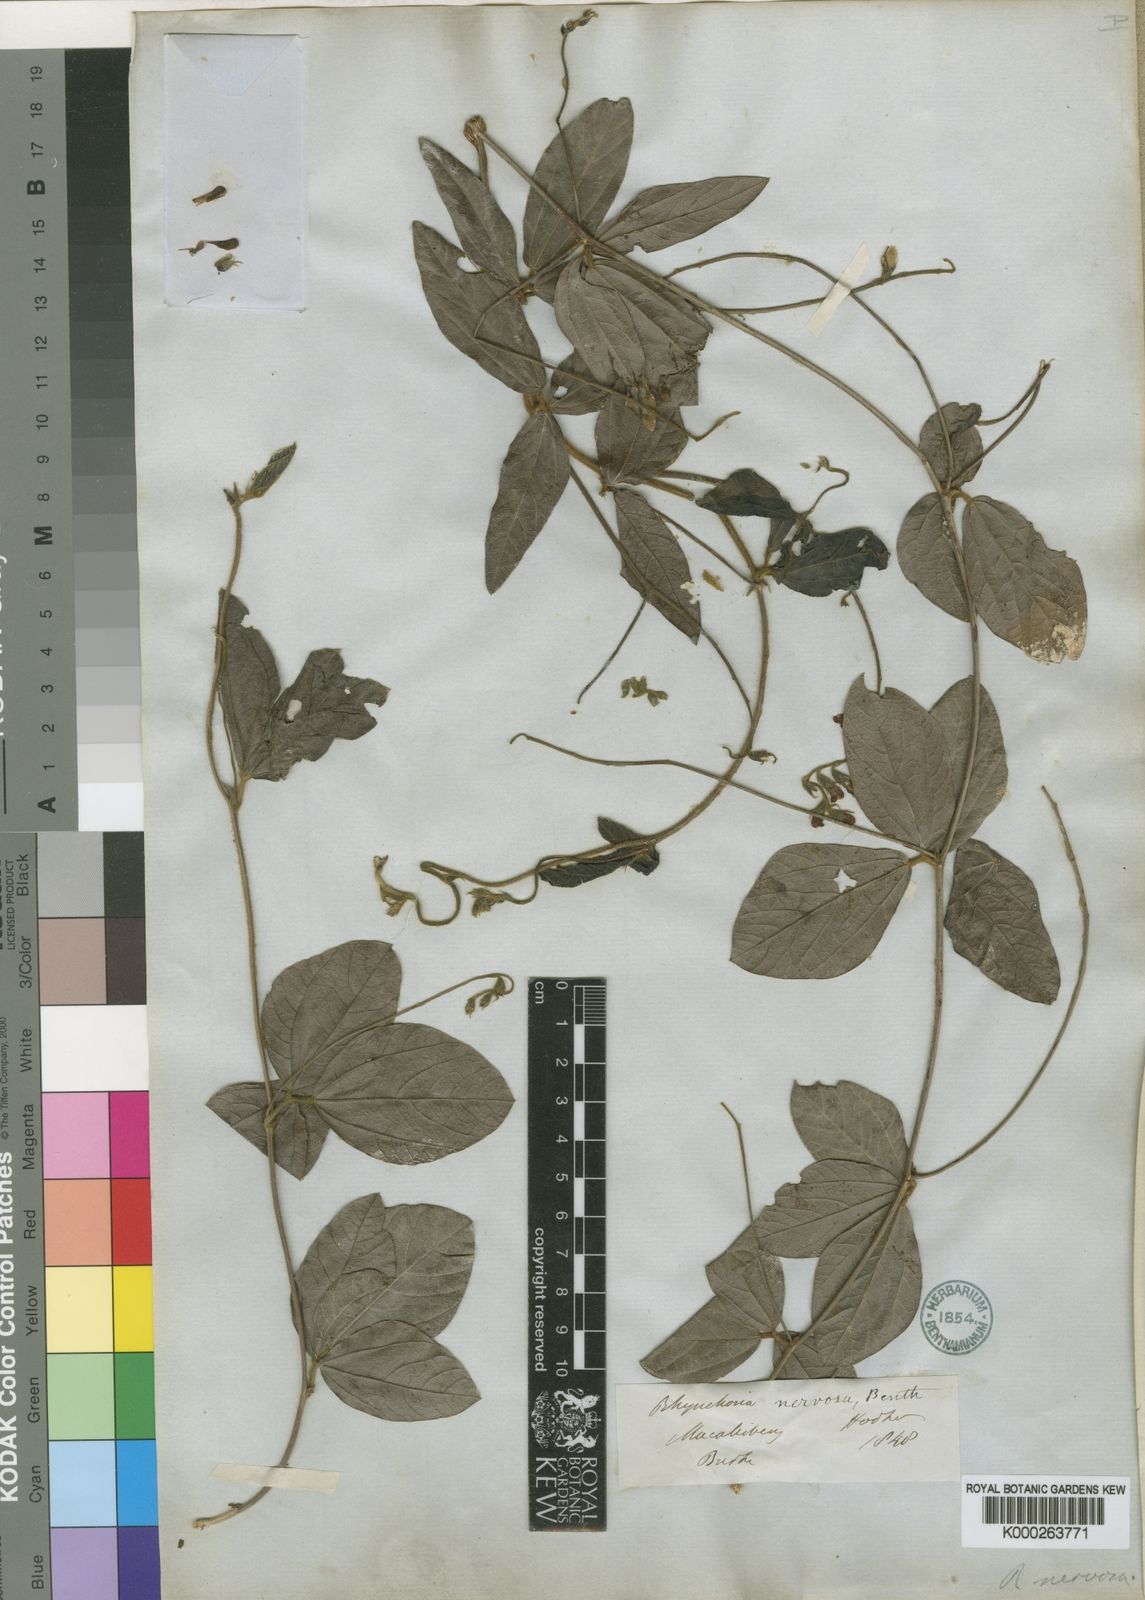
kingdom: Plantae
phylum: Tracheophyta
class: Magnoliopsida
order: Fabales
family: Fabaceae
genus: Rhynchosia
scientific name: Rhynchosia nervosa
